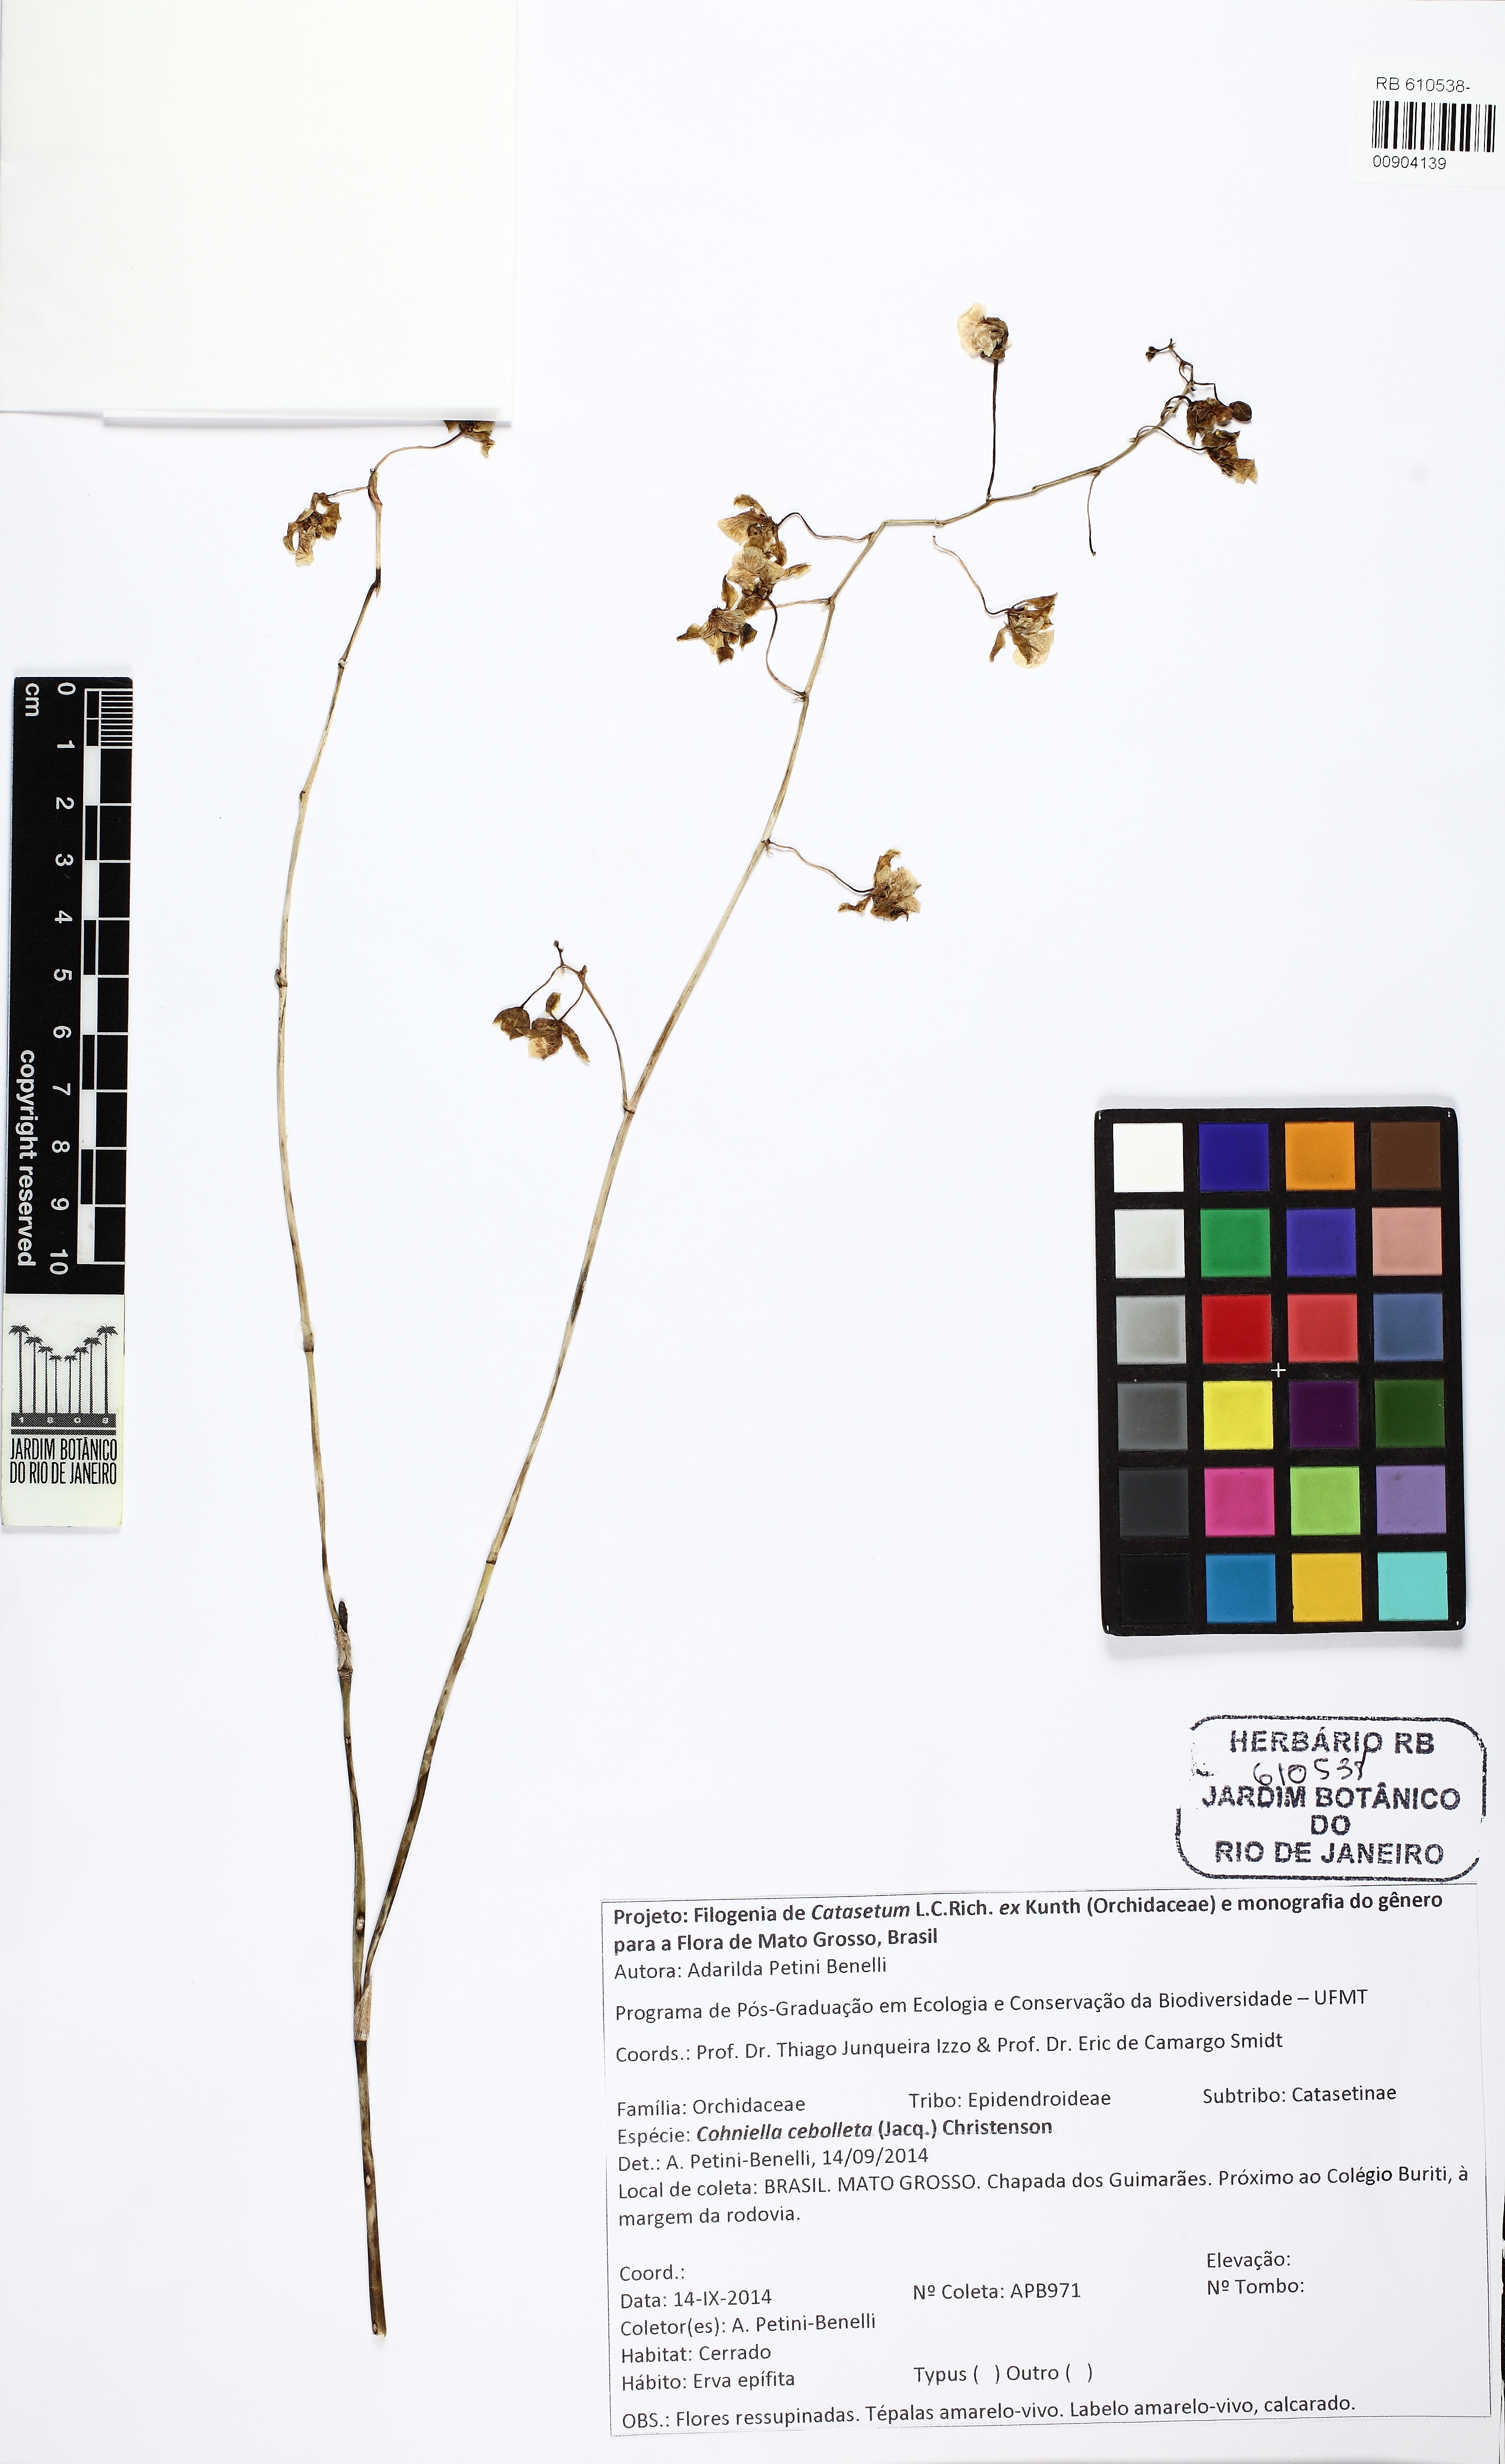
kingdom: Plantae
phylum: Tracheophyta
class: Liliopsida
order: Asparagales
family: Orchidaceae
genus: Trichocentrum
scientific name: Trichocentrum cepula
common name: Rat-tail orchid
